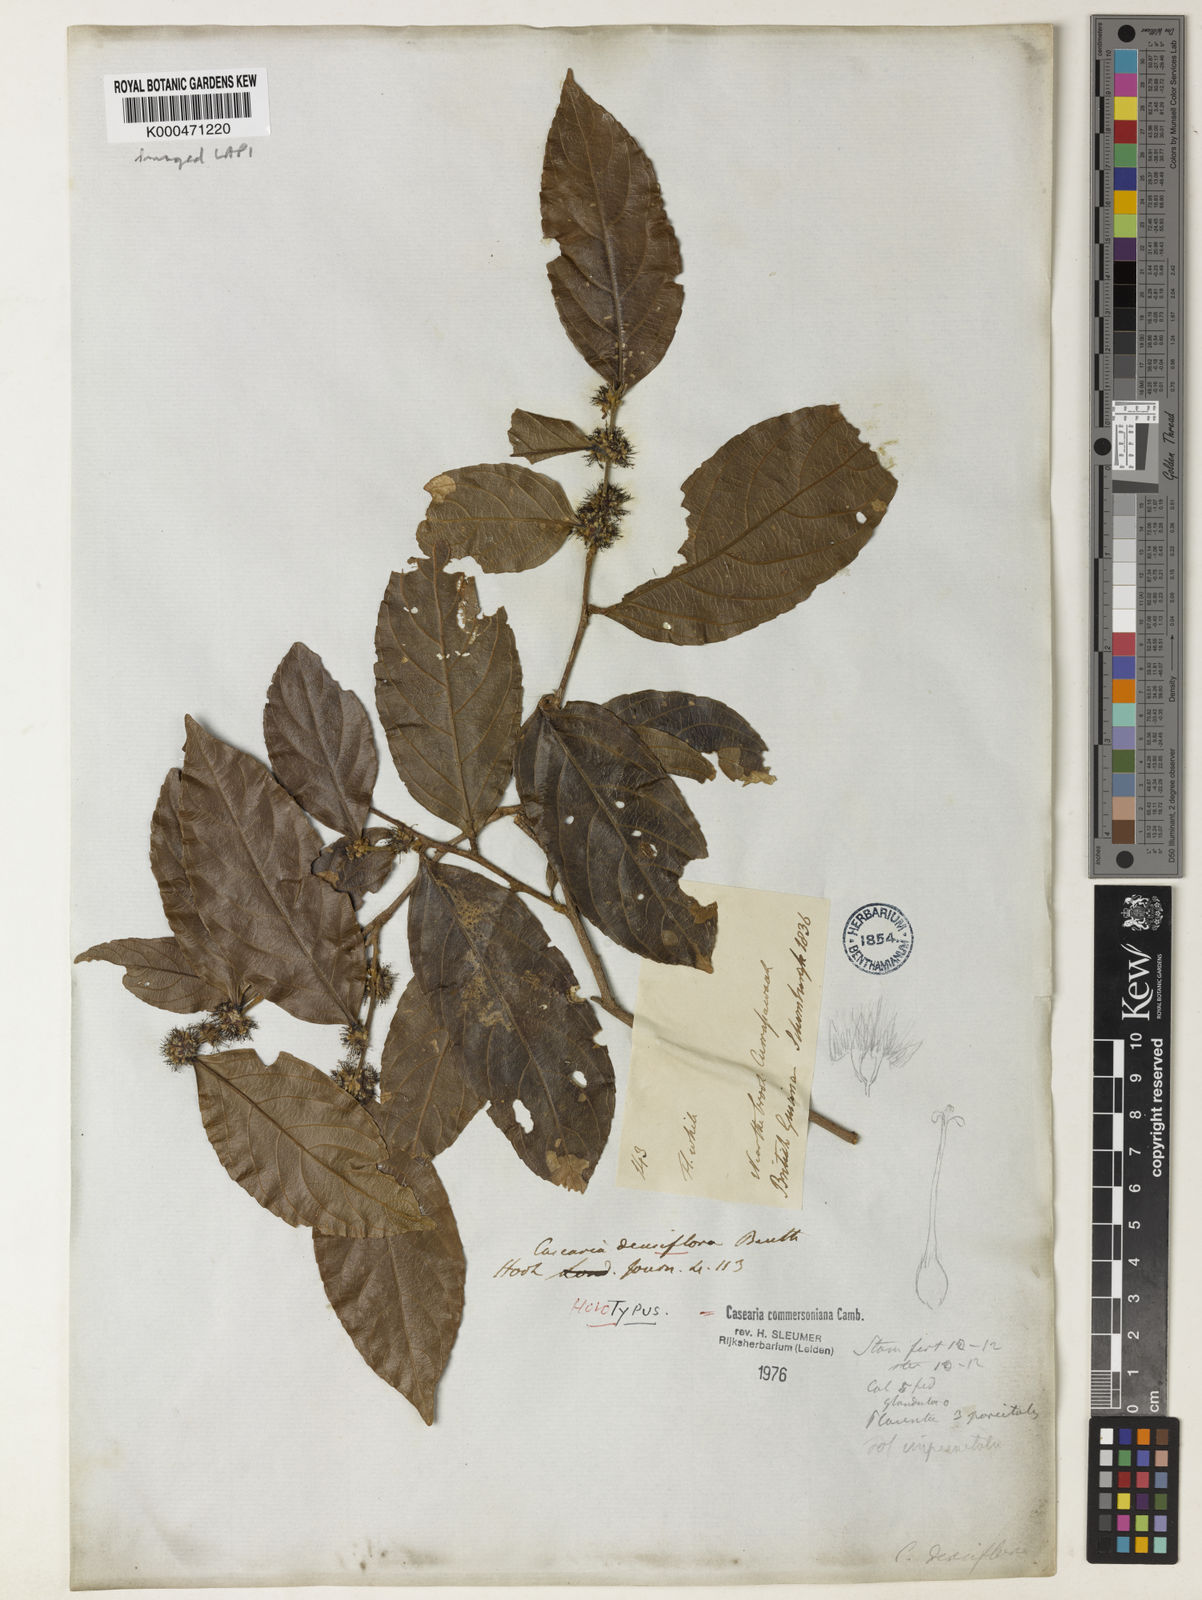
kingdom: Plantae
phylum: Tracheophyta
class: Magnoliopsida
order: Malpighiales
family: Salicaceae
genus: Piparea
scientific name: Piparea dentata
